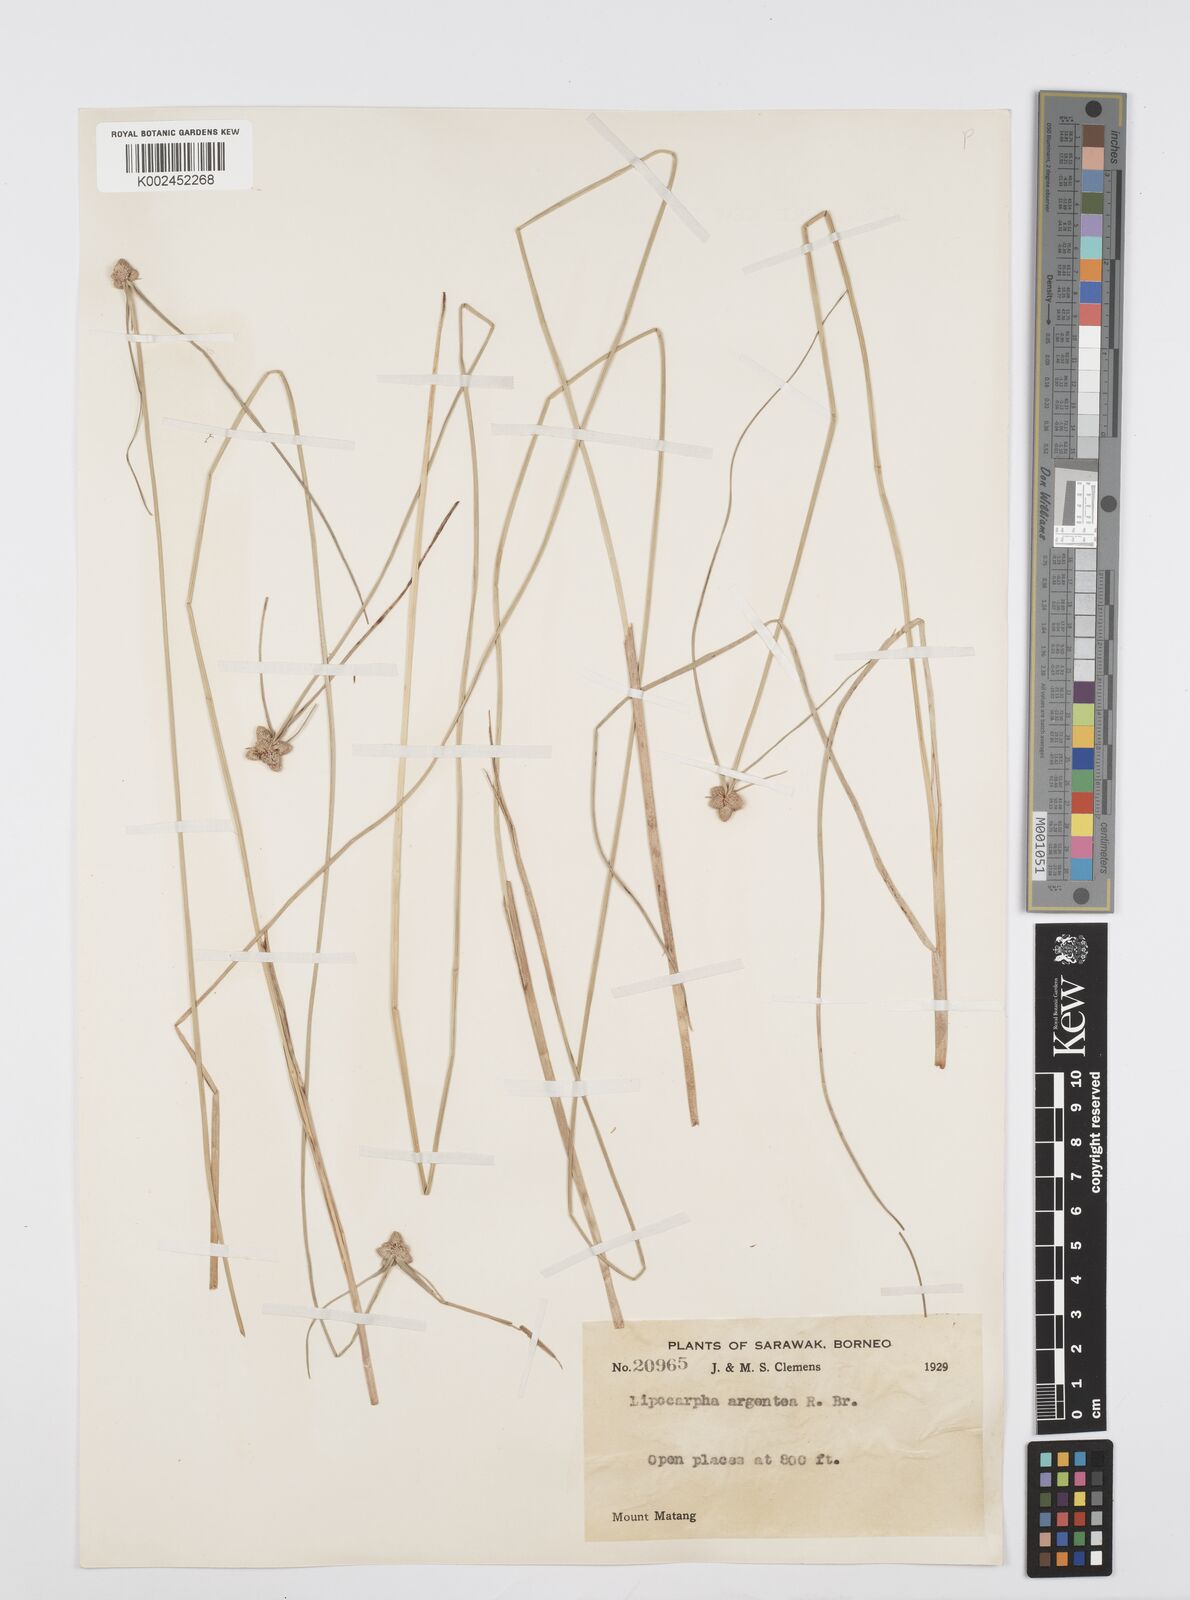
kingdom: Plantae
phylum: Tracheophyta
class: Liliopsida
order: Poales
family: Cyperaceae
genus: Cyperus
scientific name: Cyperus
